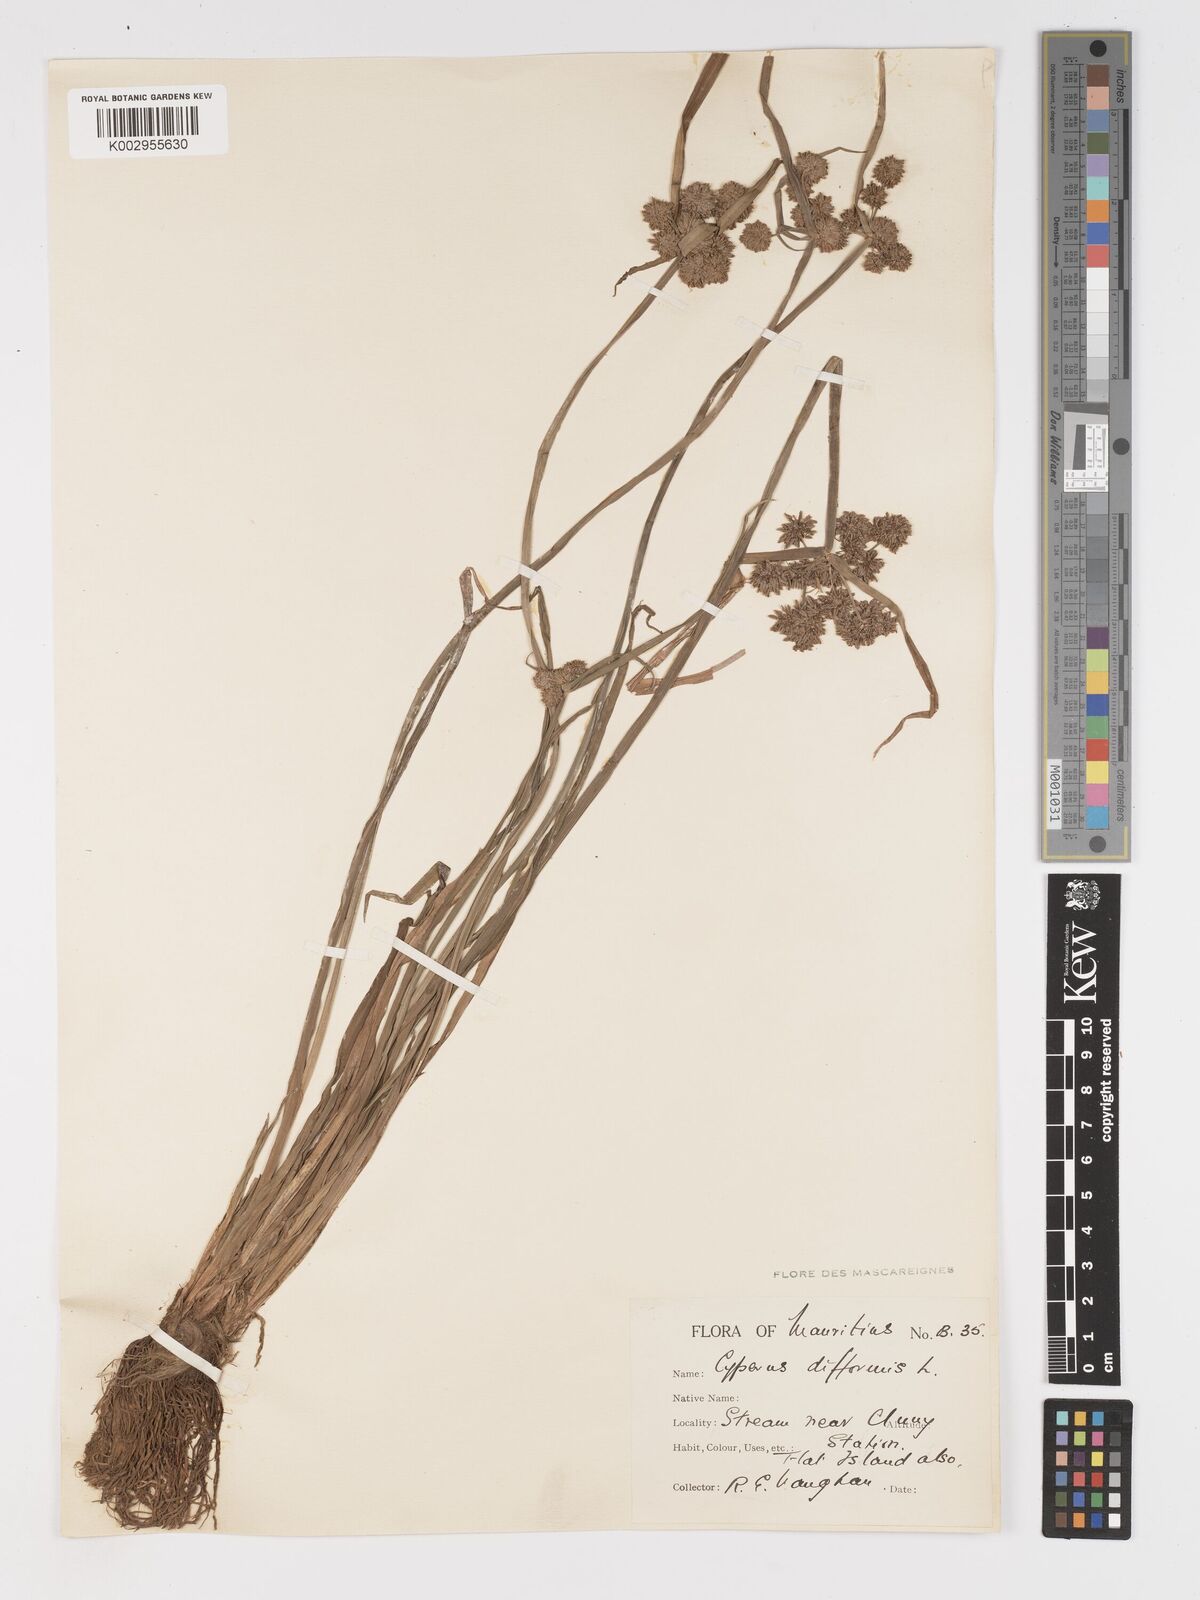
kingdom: Plantae
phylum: Tracheophyta
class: Liliopsida
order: Poales
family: Cyperaceae
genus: Cyperus
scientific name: Cyperus difformis
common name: Variable flatsedge
